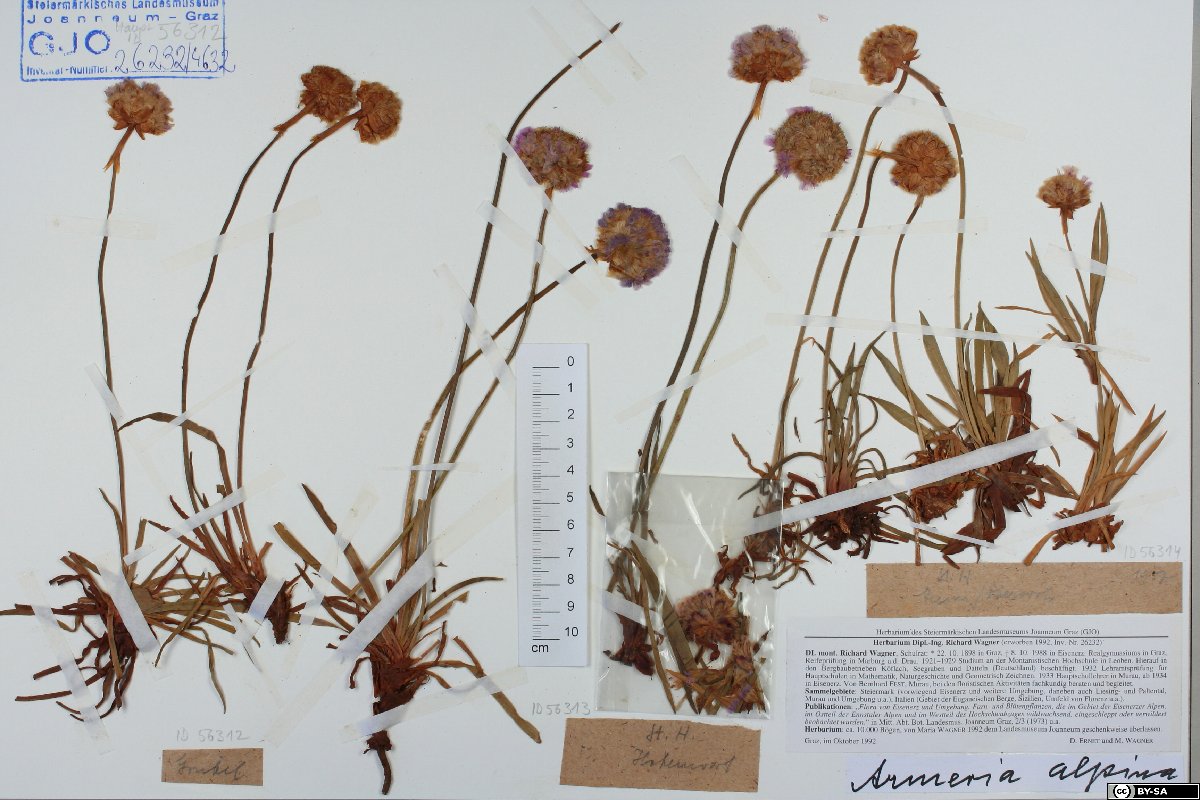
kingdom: Plantae
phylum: Tracheophyta
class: Magnoliopsida
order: Caryophyllales
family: Plumbaginaceae
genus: Armeria
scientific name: Armeria alpina
